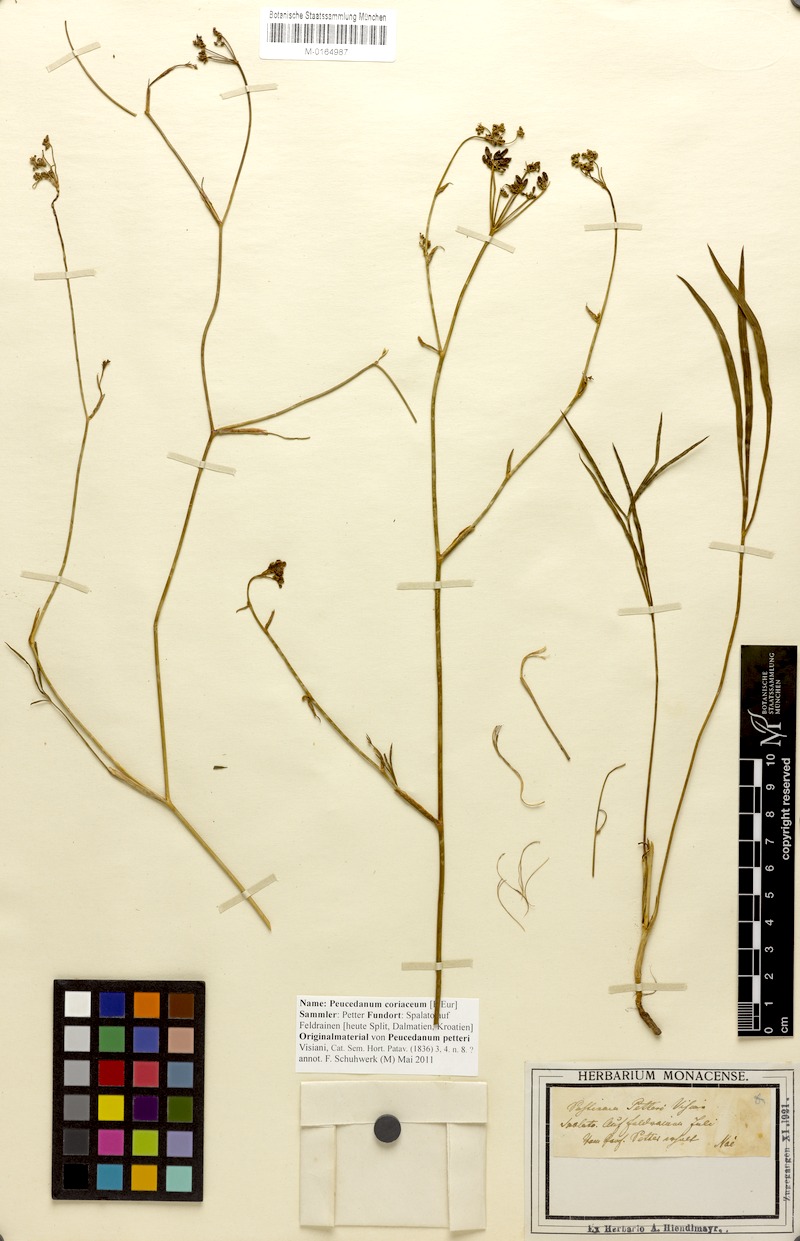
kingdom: Plantae
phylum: Tracheophyta
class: Magnoliopsida
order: Apiales
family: Apiaceae
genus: Peucedanum
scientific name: Peucedanum coriaceum
